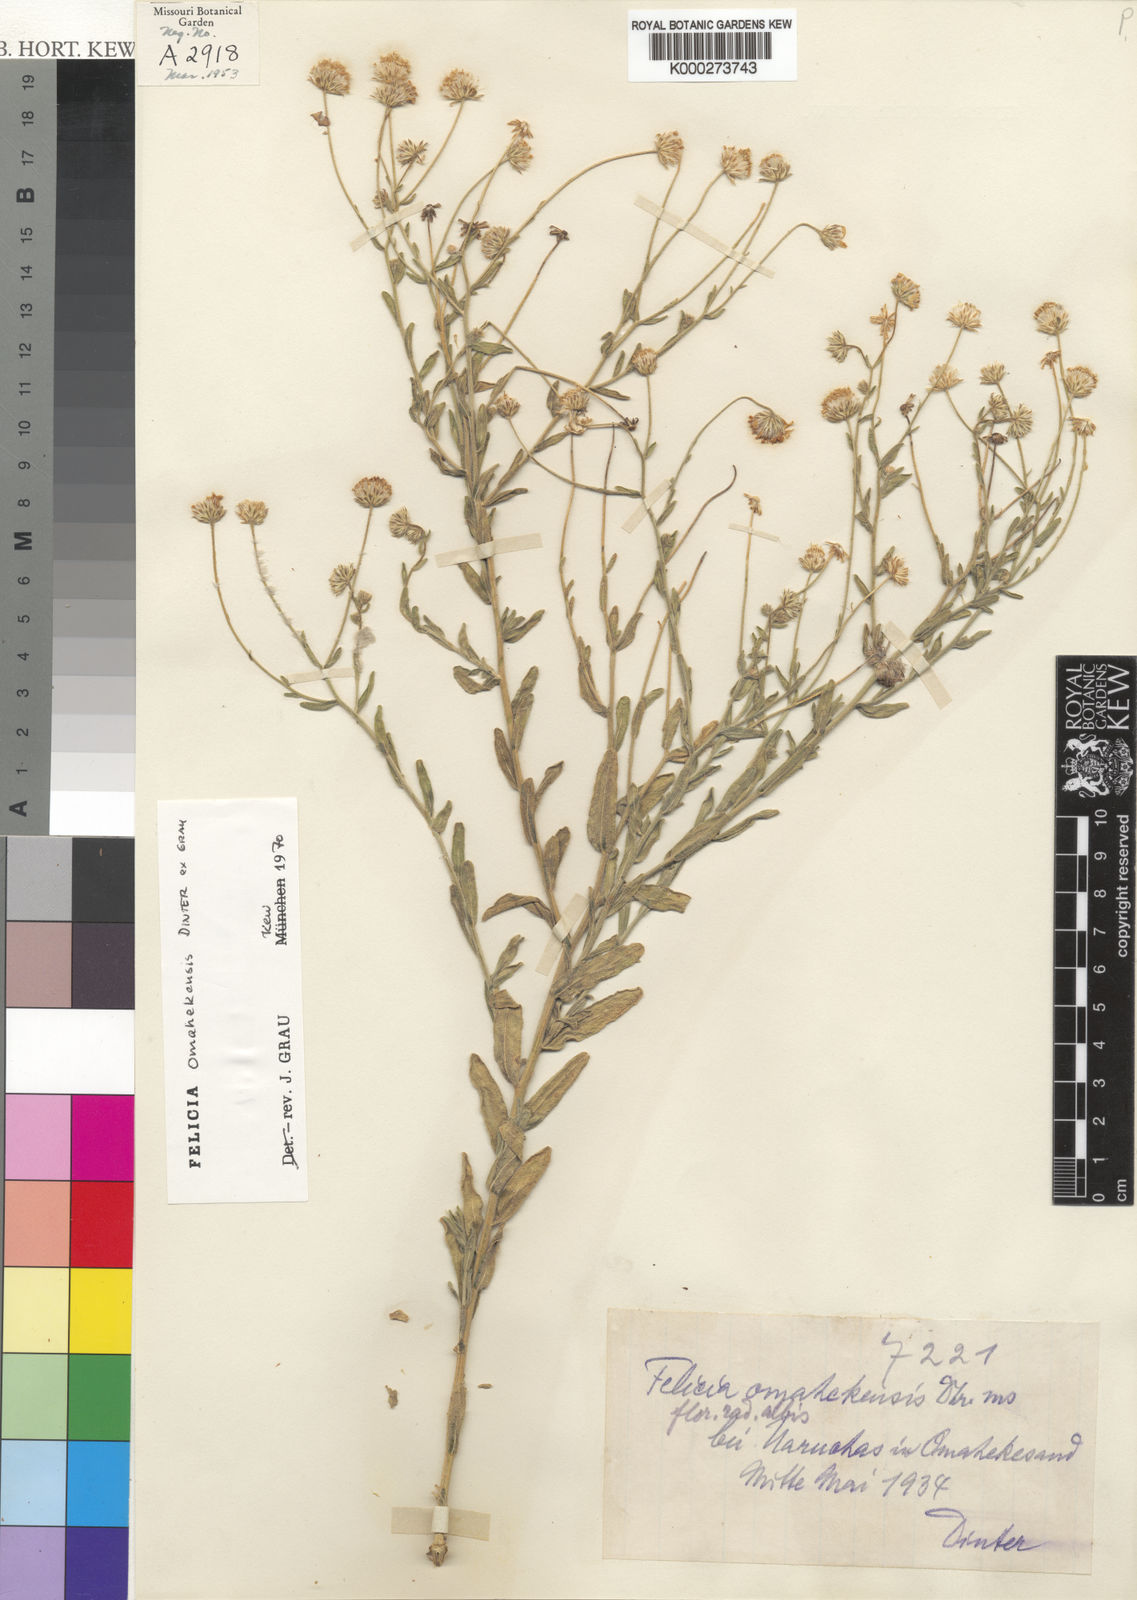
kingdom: Plantae
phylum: Tracheophyta
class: Magnoliopsida
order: Asterales
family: Asteraceae
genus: Felicia
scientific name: Felicia
